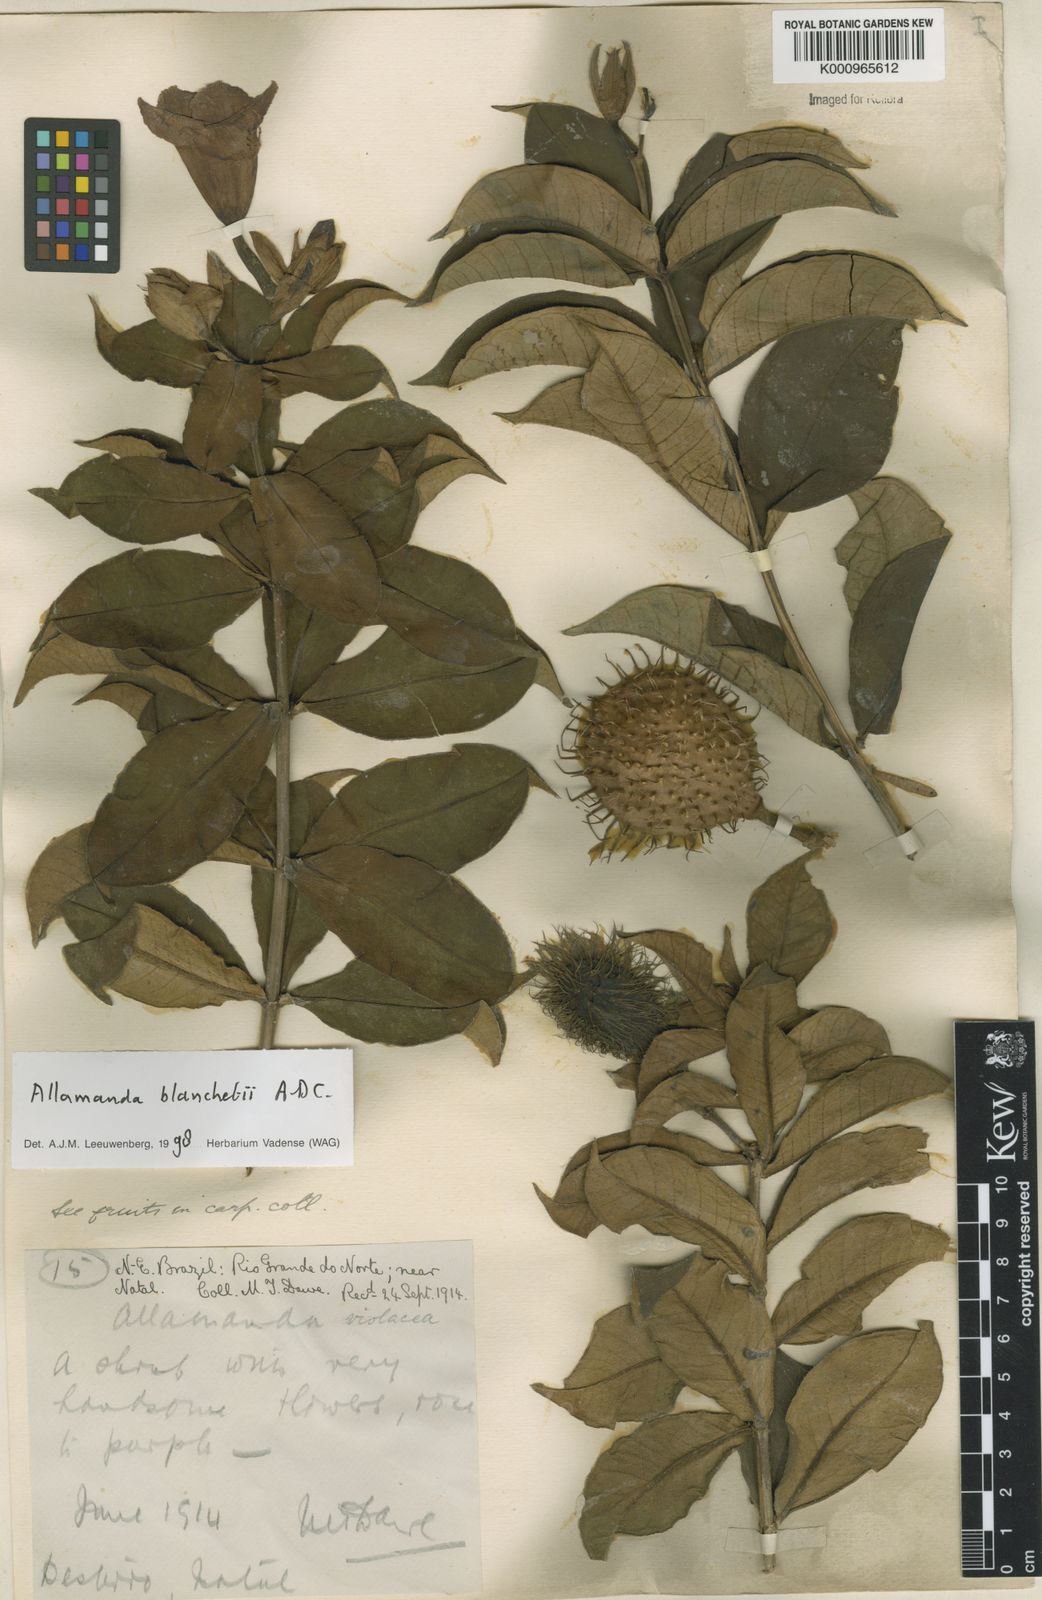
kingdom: Plantae
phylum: Tracheophyta
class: Magnoliopsida
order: Gentianales
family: Apocynaceae
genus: Allamanda
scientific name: Allamanda blanchetii
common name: Purple allamanda
